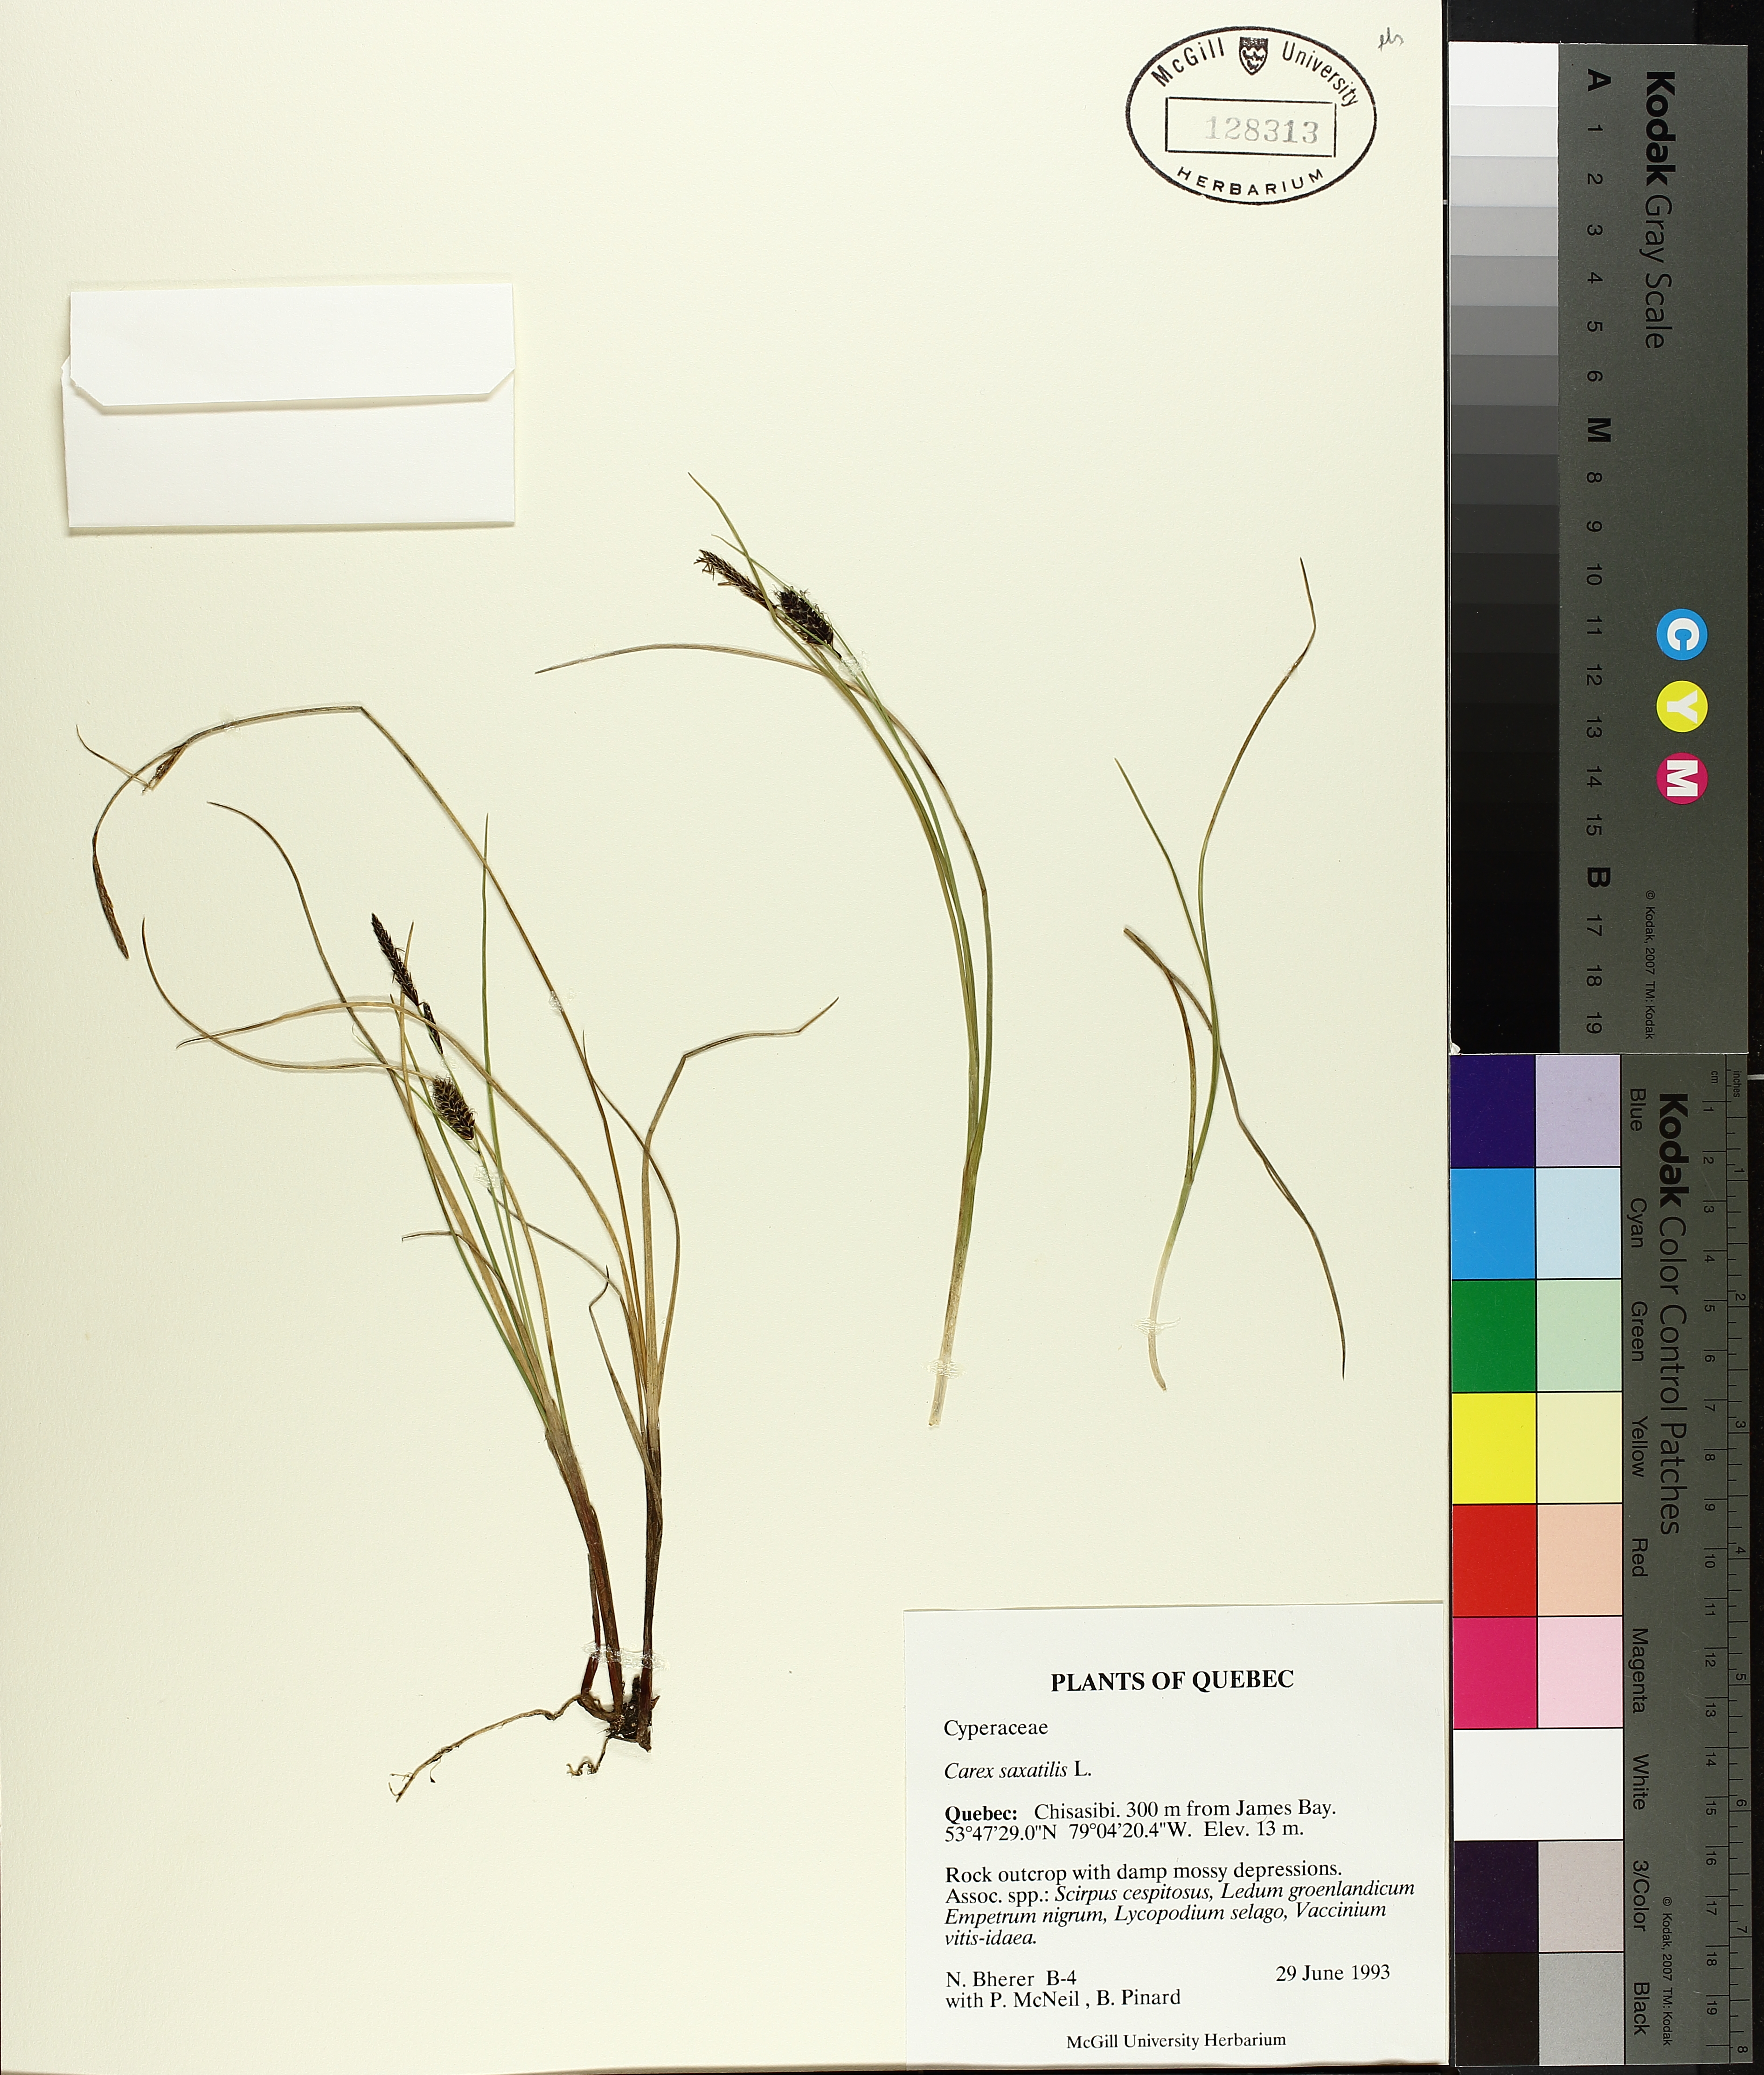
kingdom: Plantae
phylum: Tracheophyta
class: Liliopsida
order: Poales
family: Cyperaceae
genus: Carex
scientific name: Carex saxatilis
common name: Russet sedge
